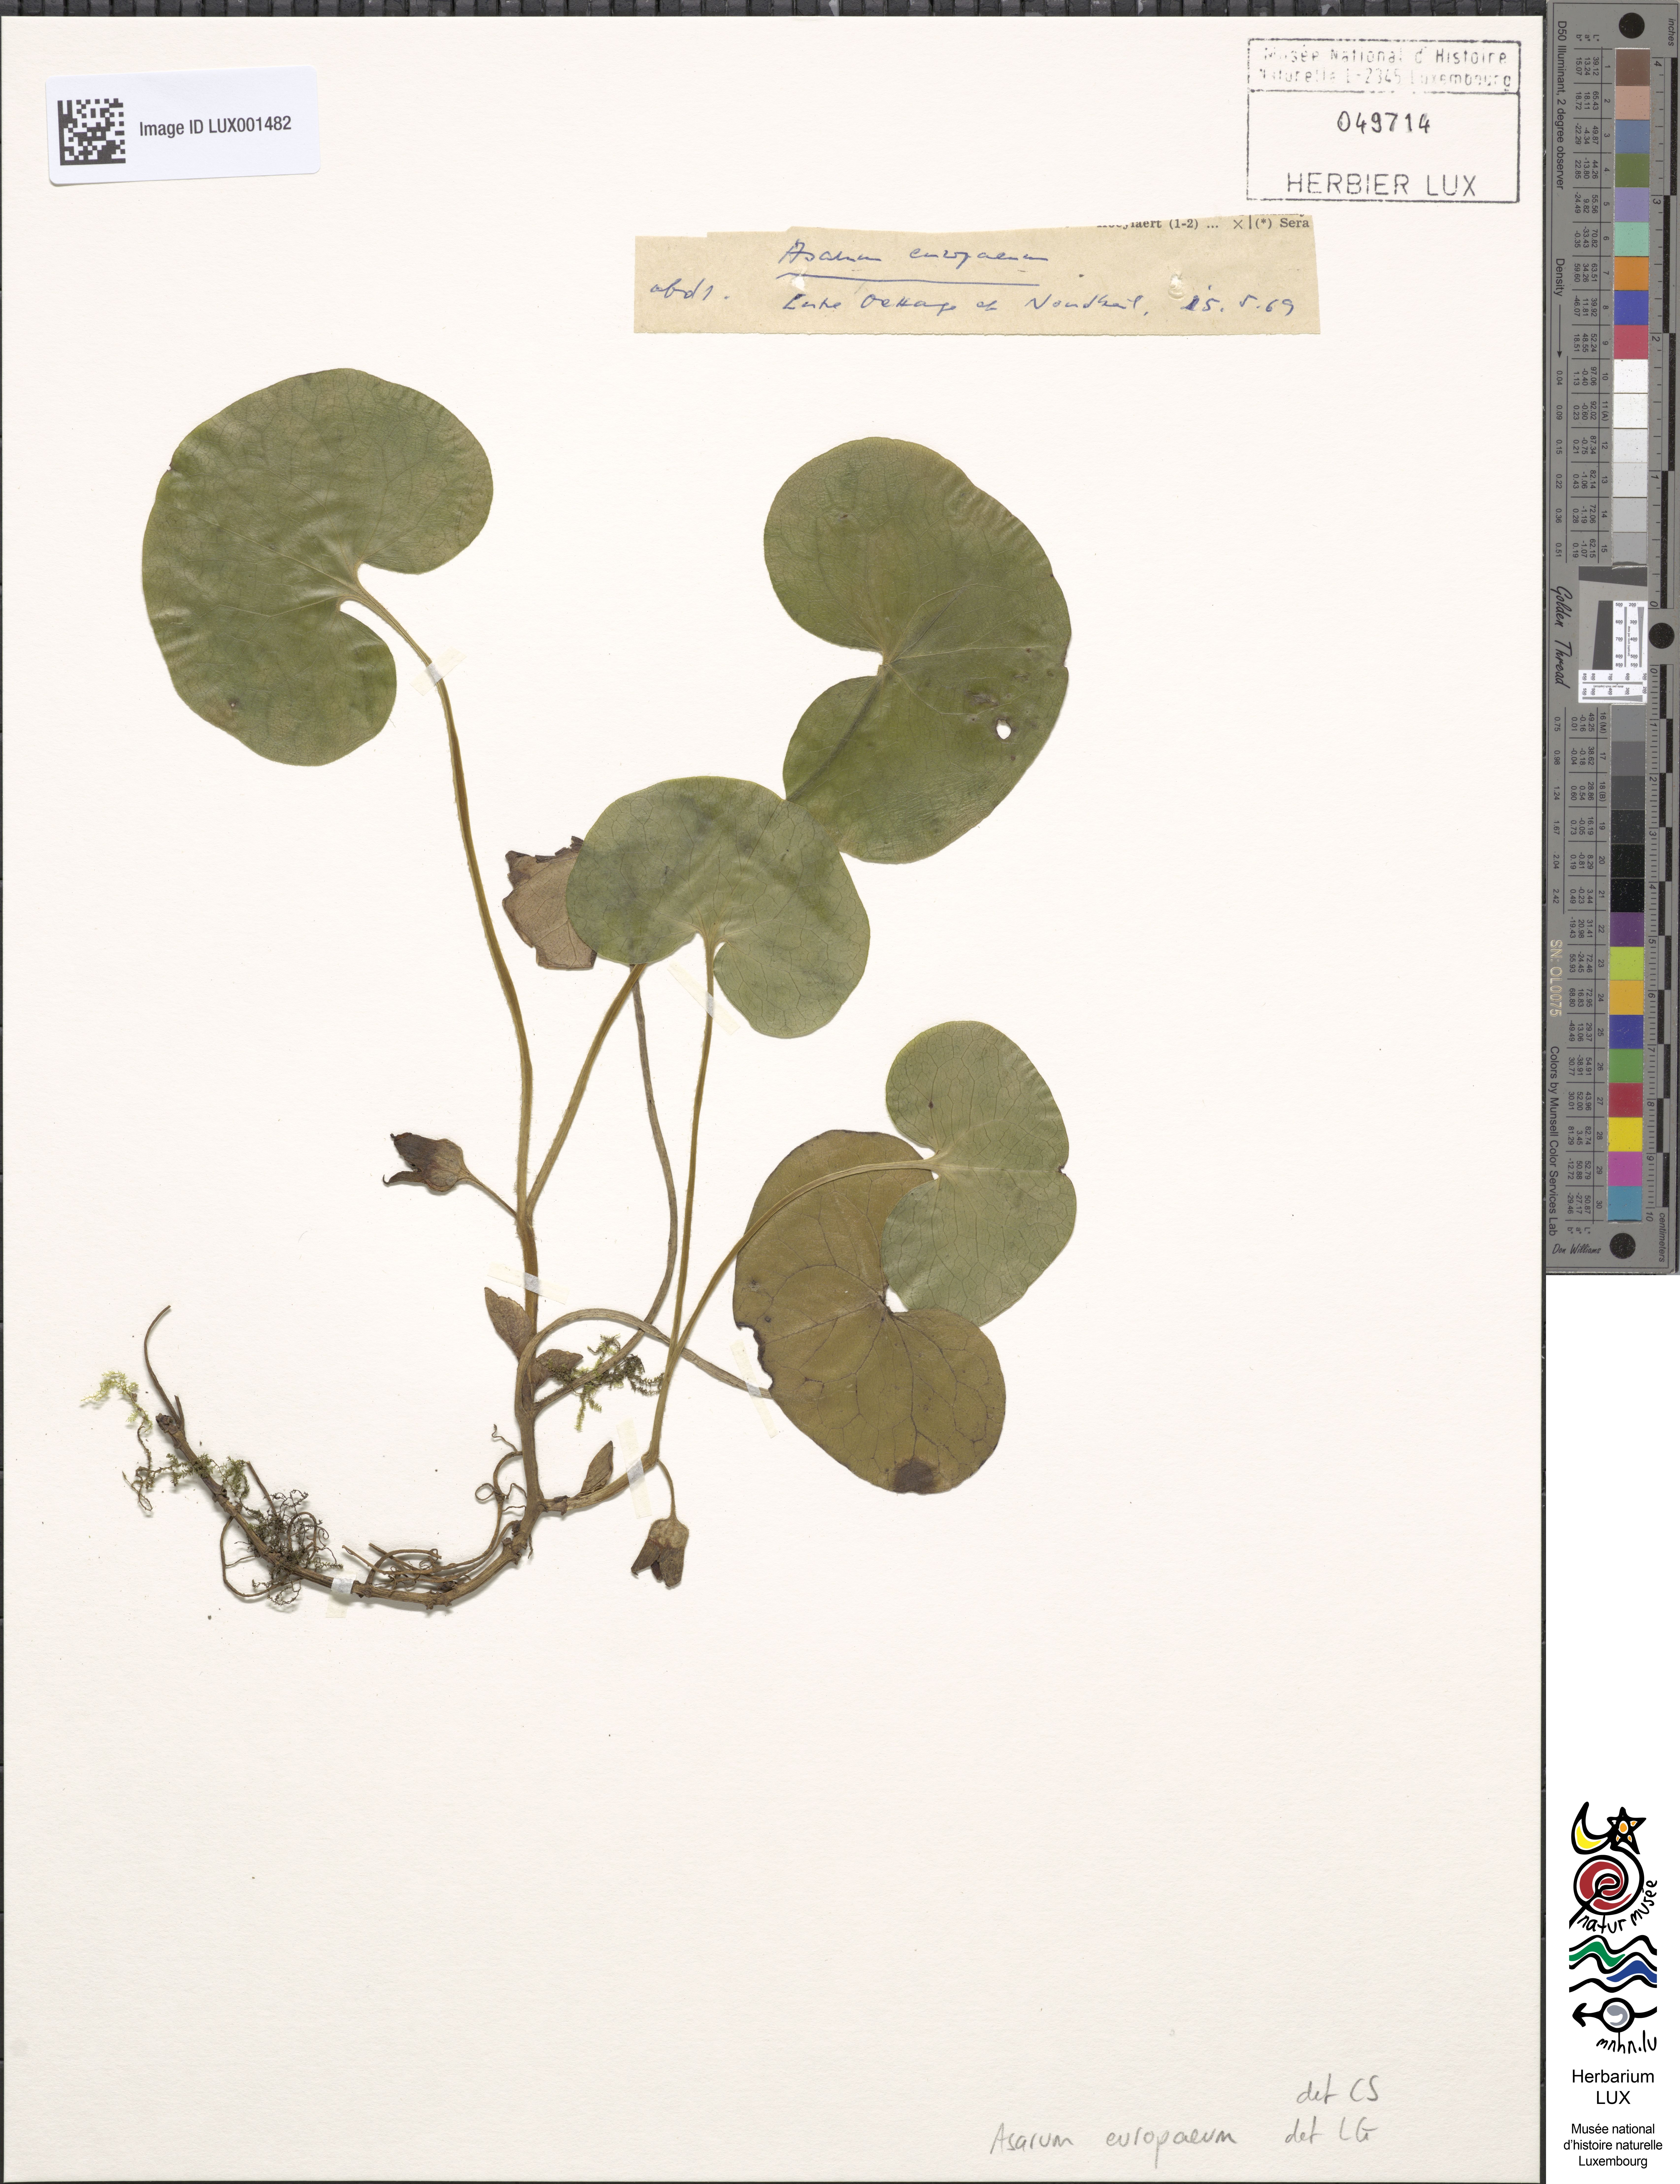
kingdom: Plantae
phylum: Tracheophyta
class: Magnoliopsida
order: Piperales
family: Aristolochiaceae
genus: Asarum
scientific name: Asarum europaeum
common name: Asarabacca
